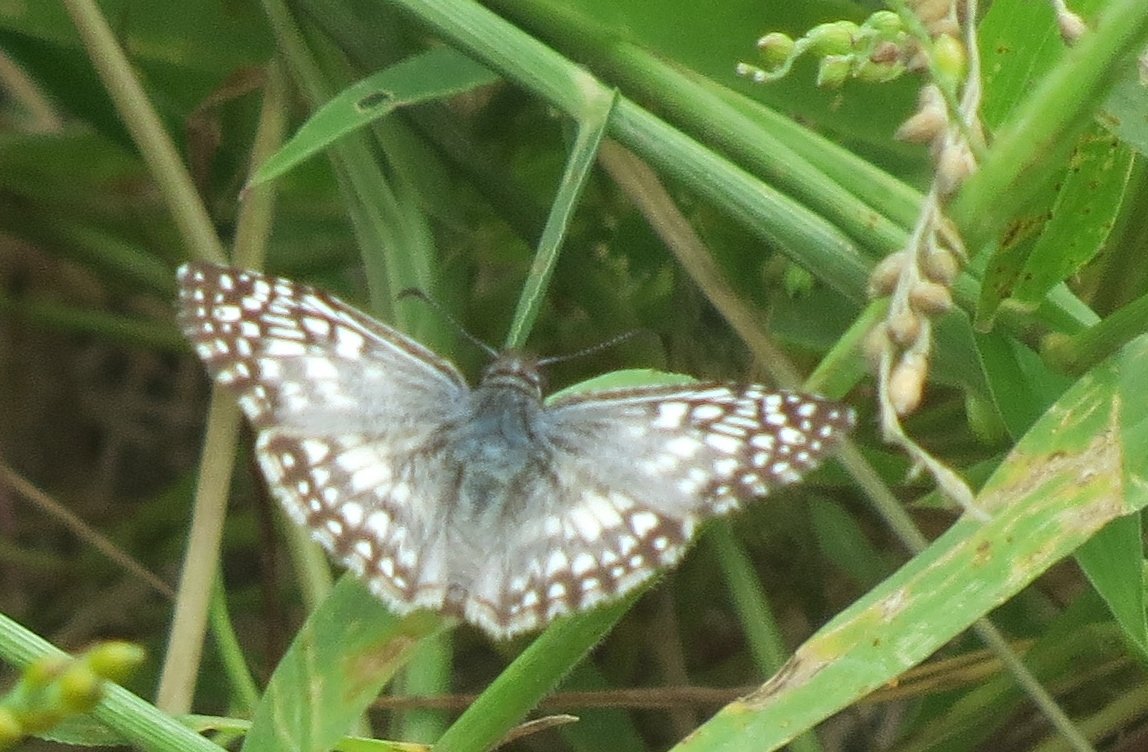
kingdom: Animalia
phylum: Arthropoda
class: Insecta
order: Lepidoptera
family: Hesperiidae
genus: Pyrgus
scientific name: Pyrgus oileus
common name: Tropical Checkered-Skipper
